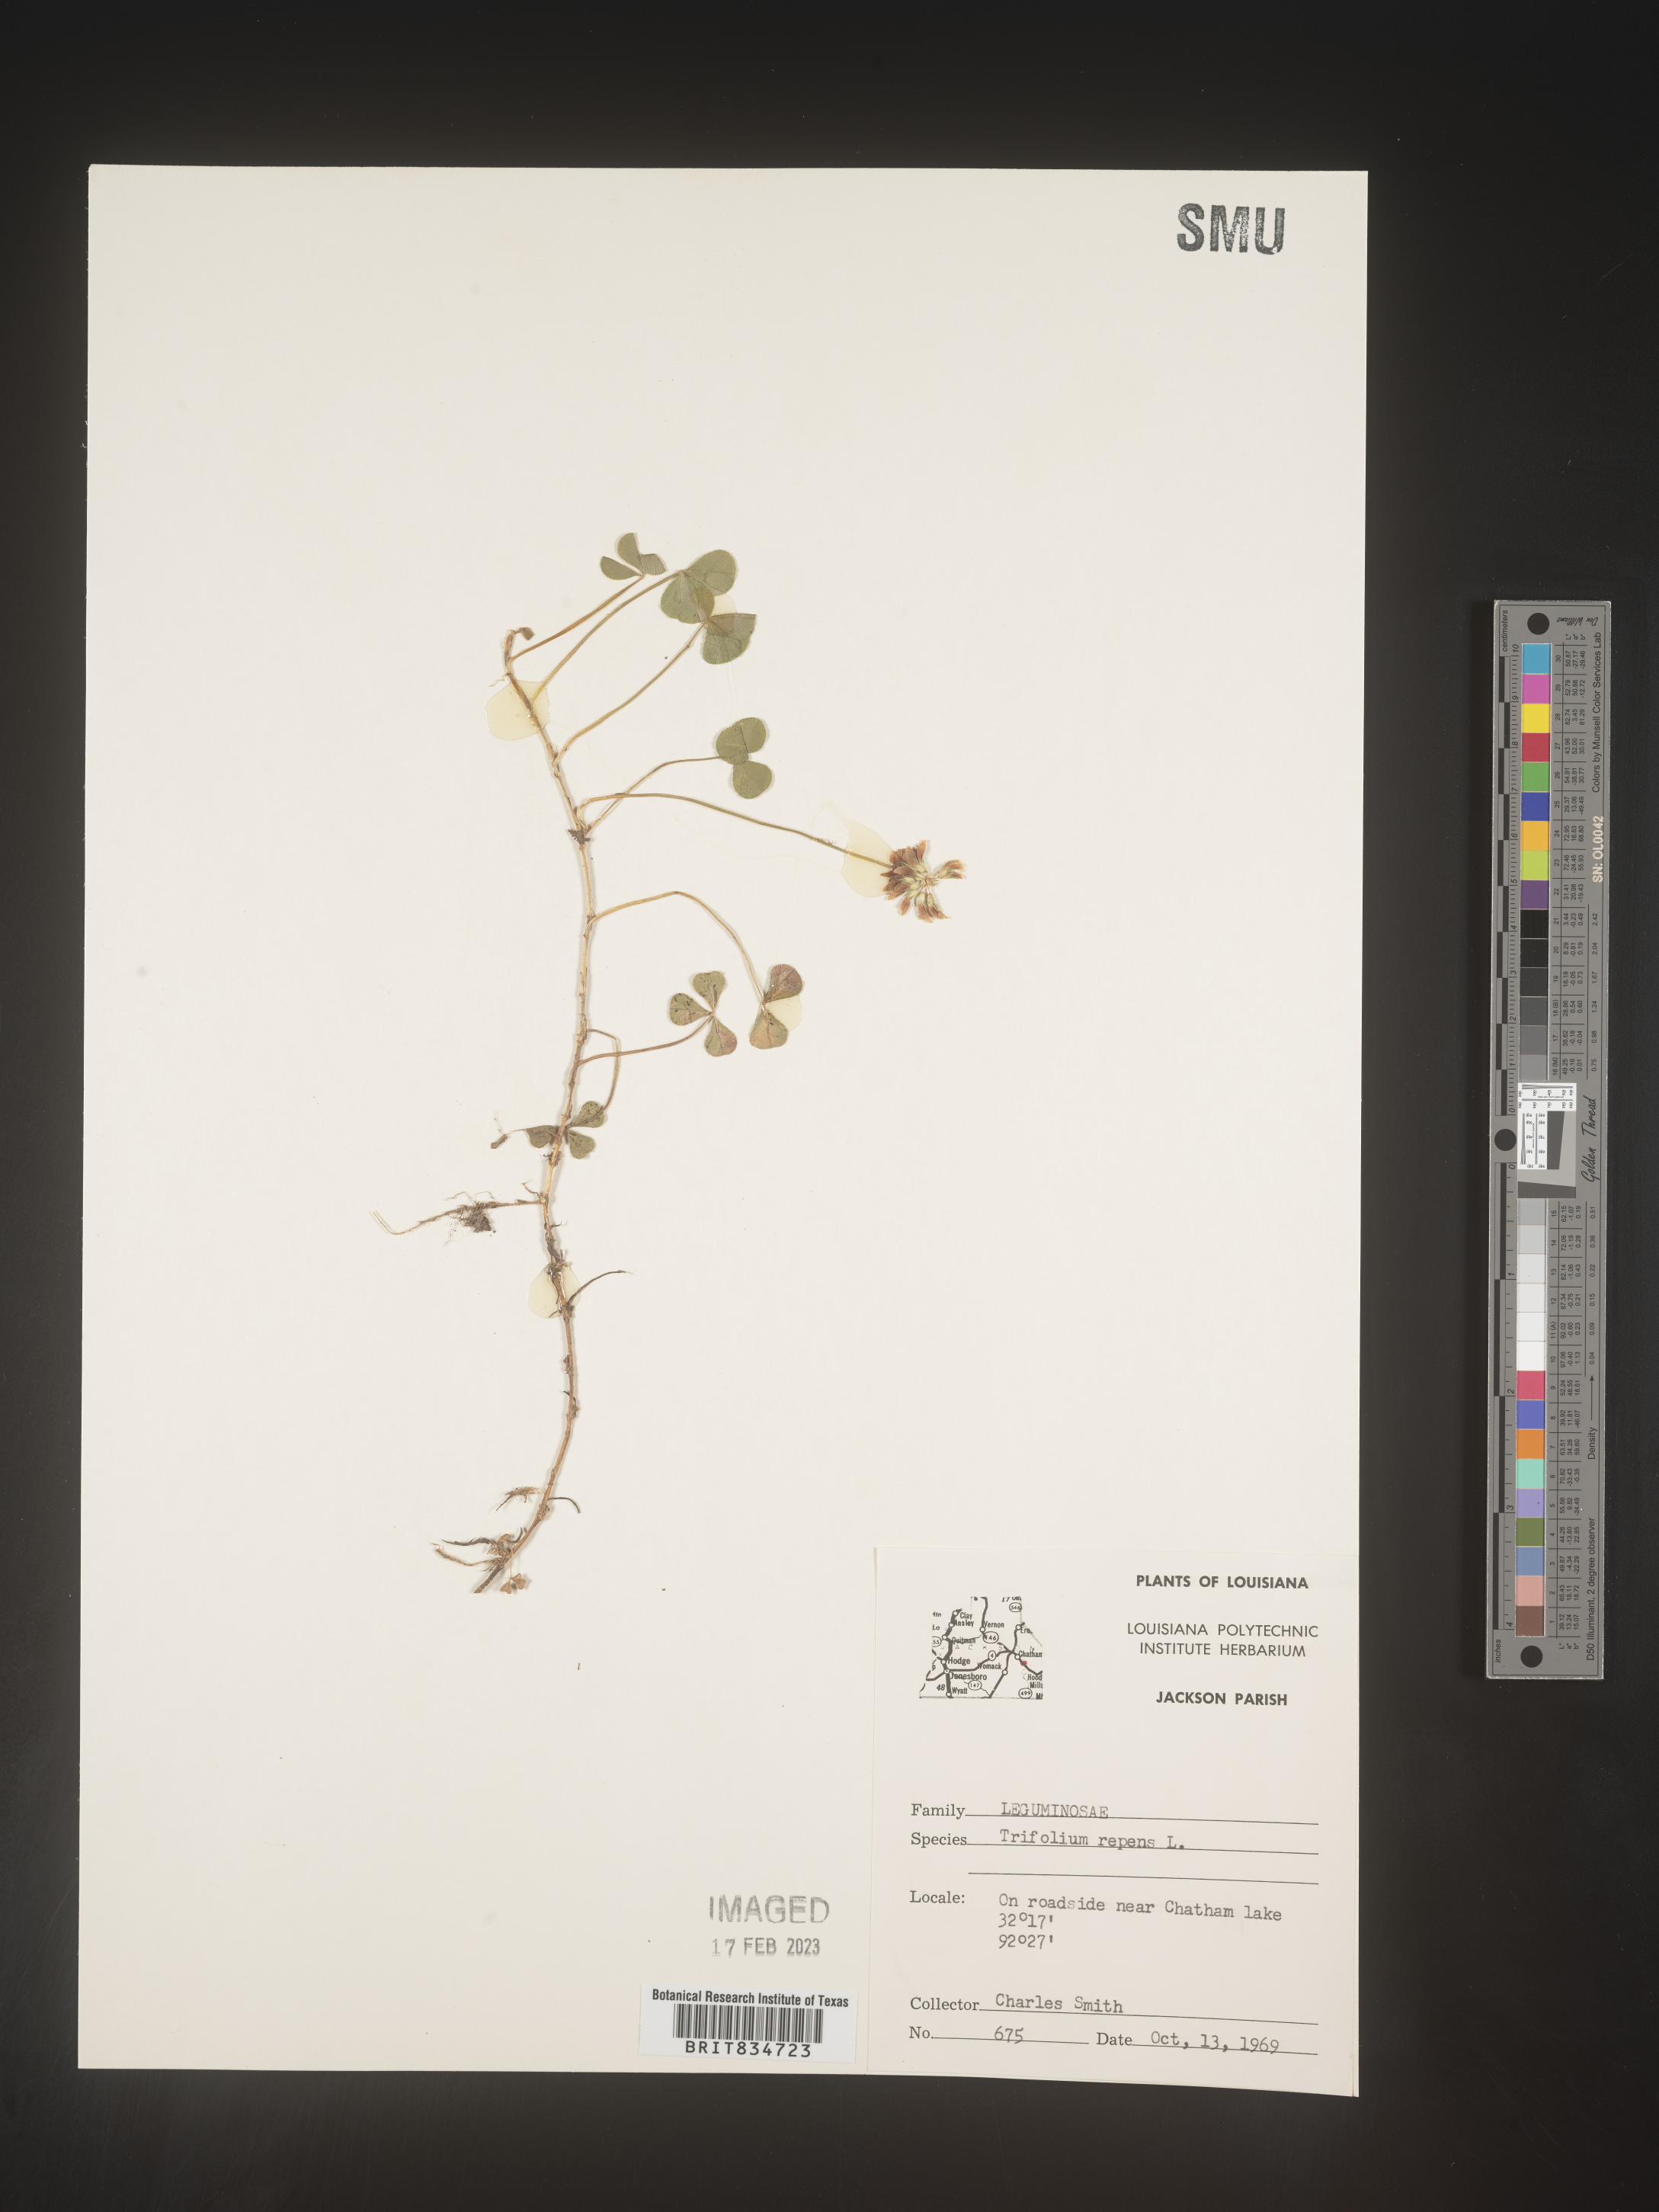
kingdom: Plantae
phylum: Tracheophyta
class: Magnoliopsida
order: Fabales
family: Fabaceae
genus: Trifolium
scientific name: Trifolium repens
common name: White clover
